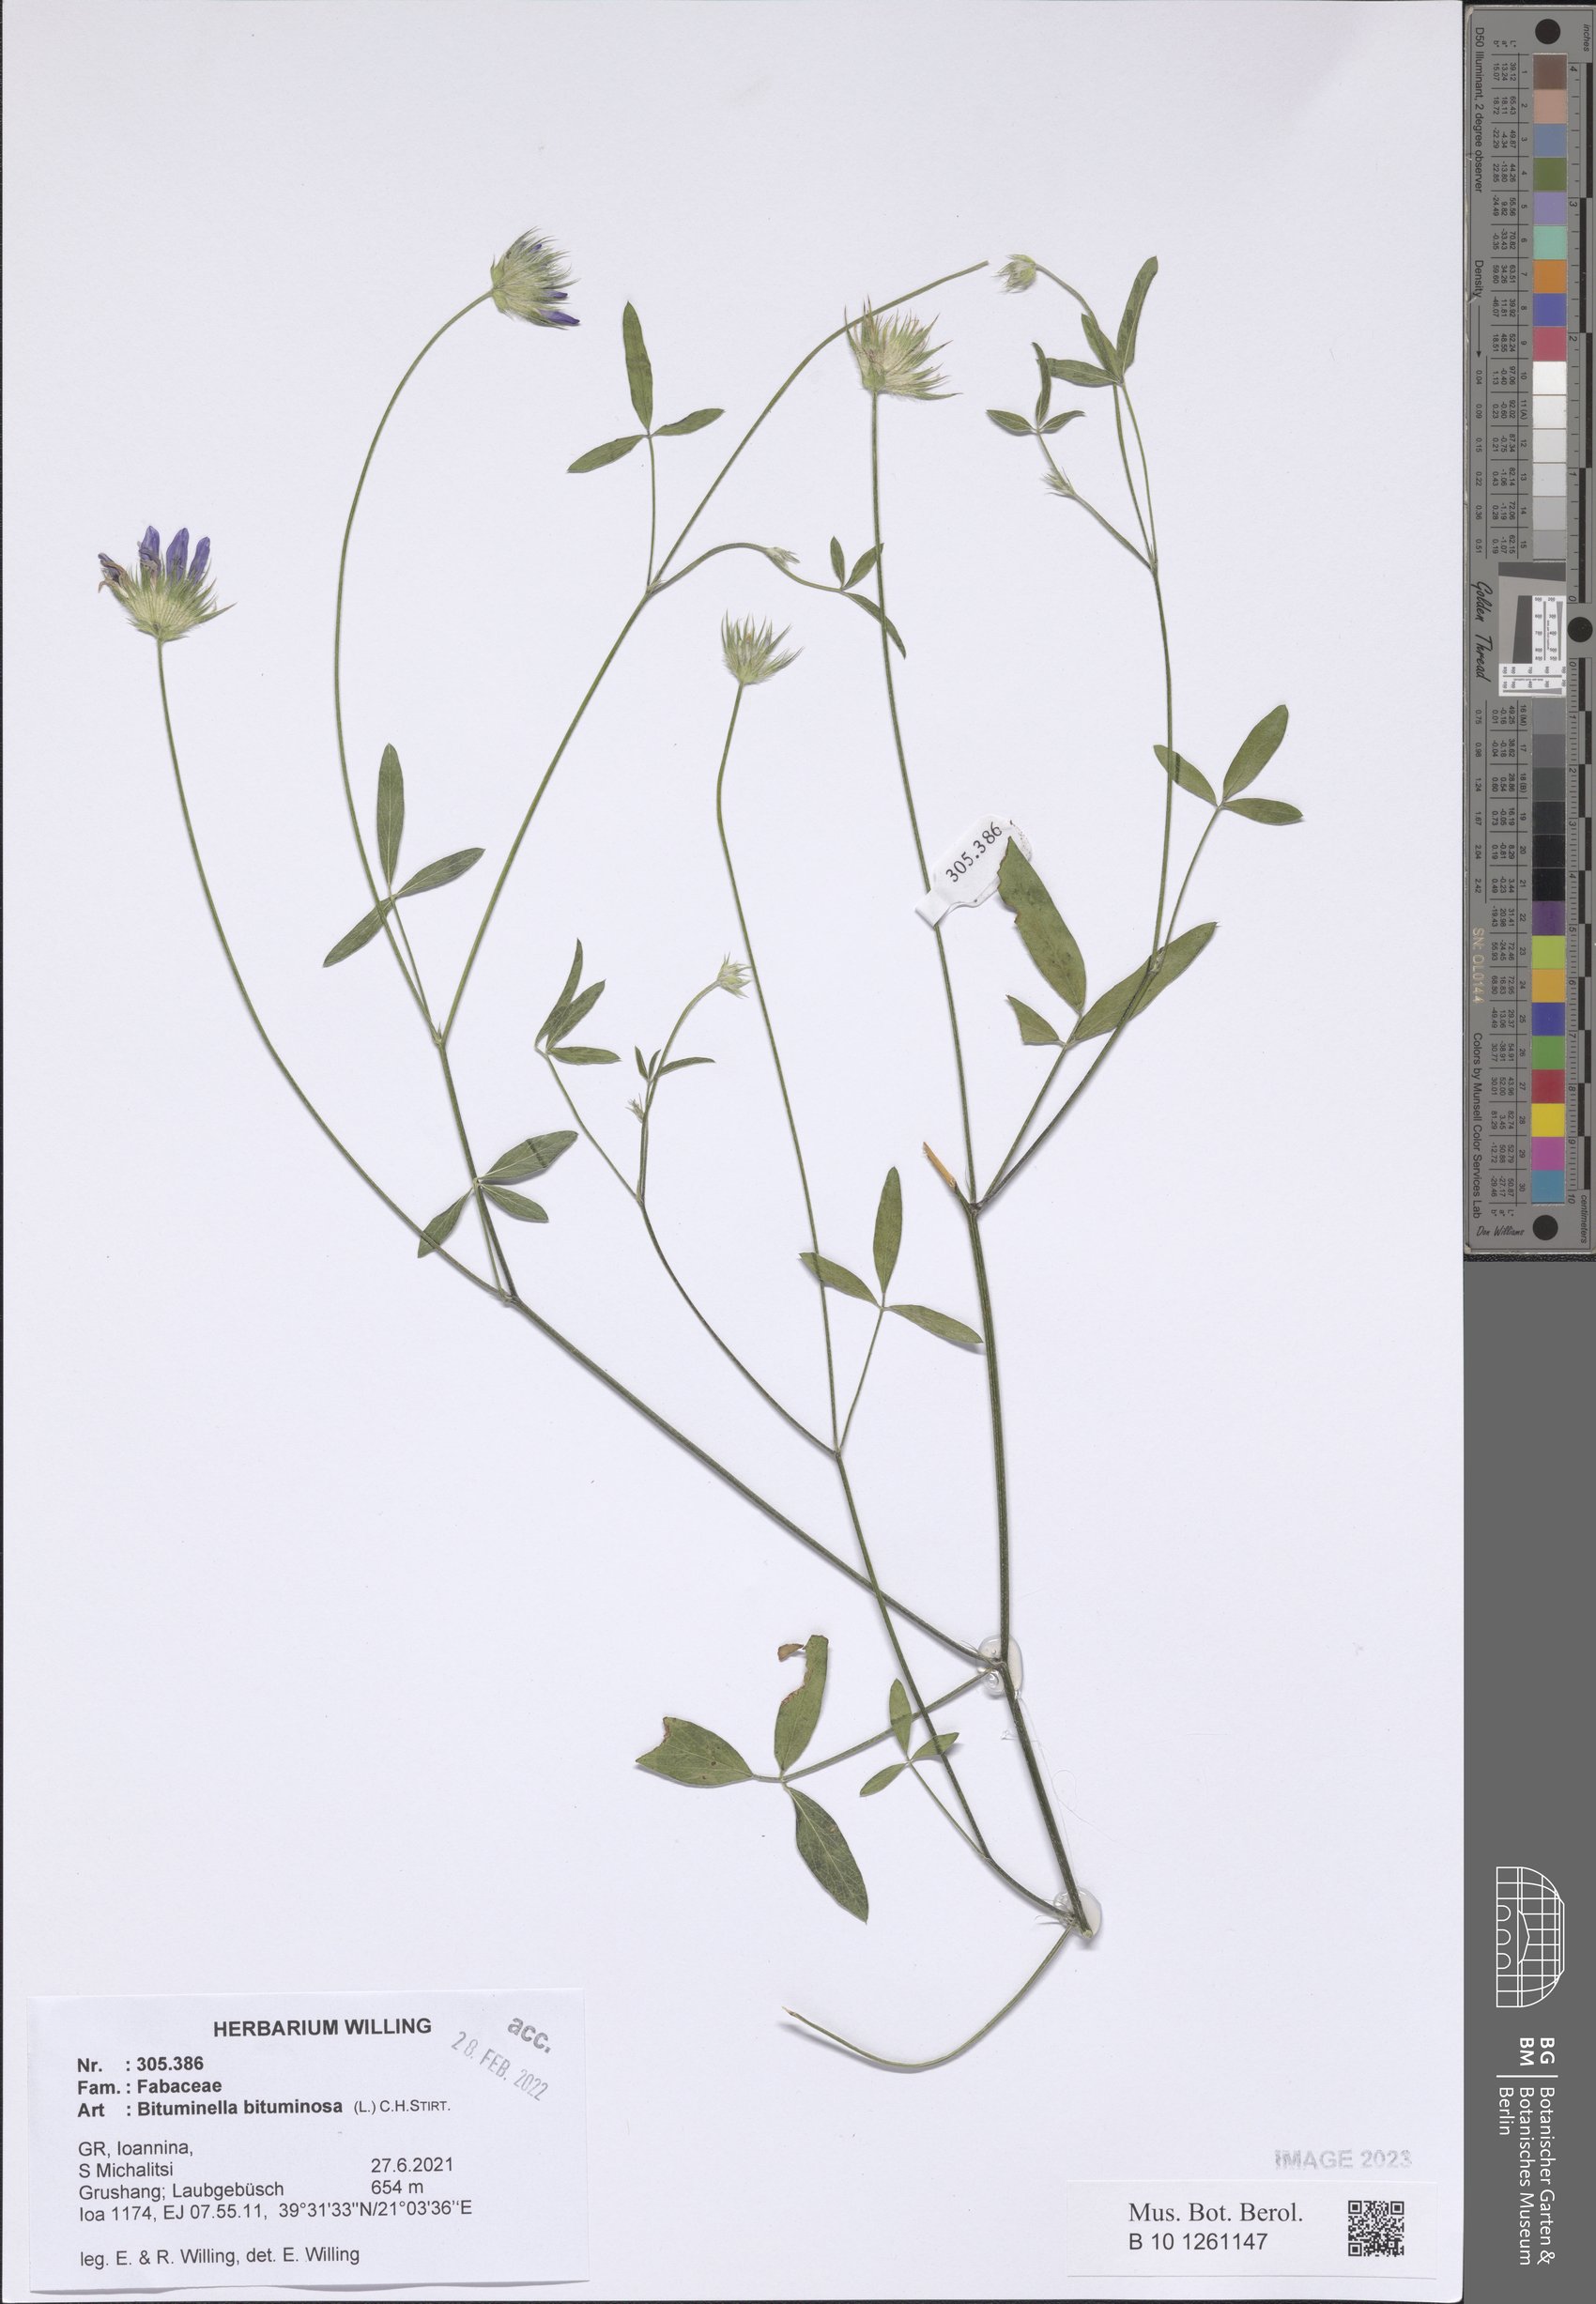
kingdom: Plantae
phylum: Tracheophyta
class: Magnoliopsida
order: Fabales
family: Fabaceae
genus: Bituminaria
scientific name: Bituminaria bituminosa
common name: Arabian pea
